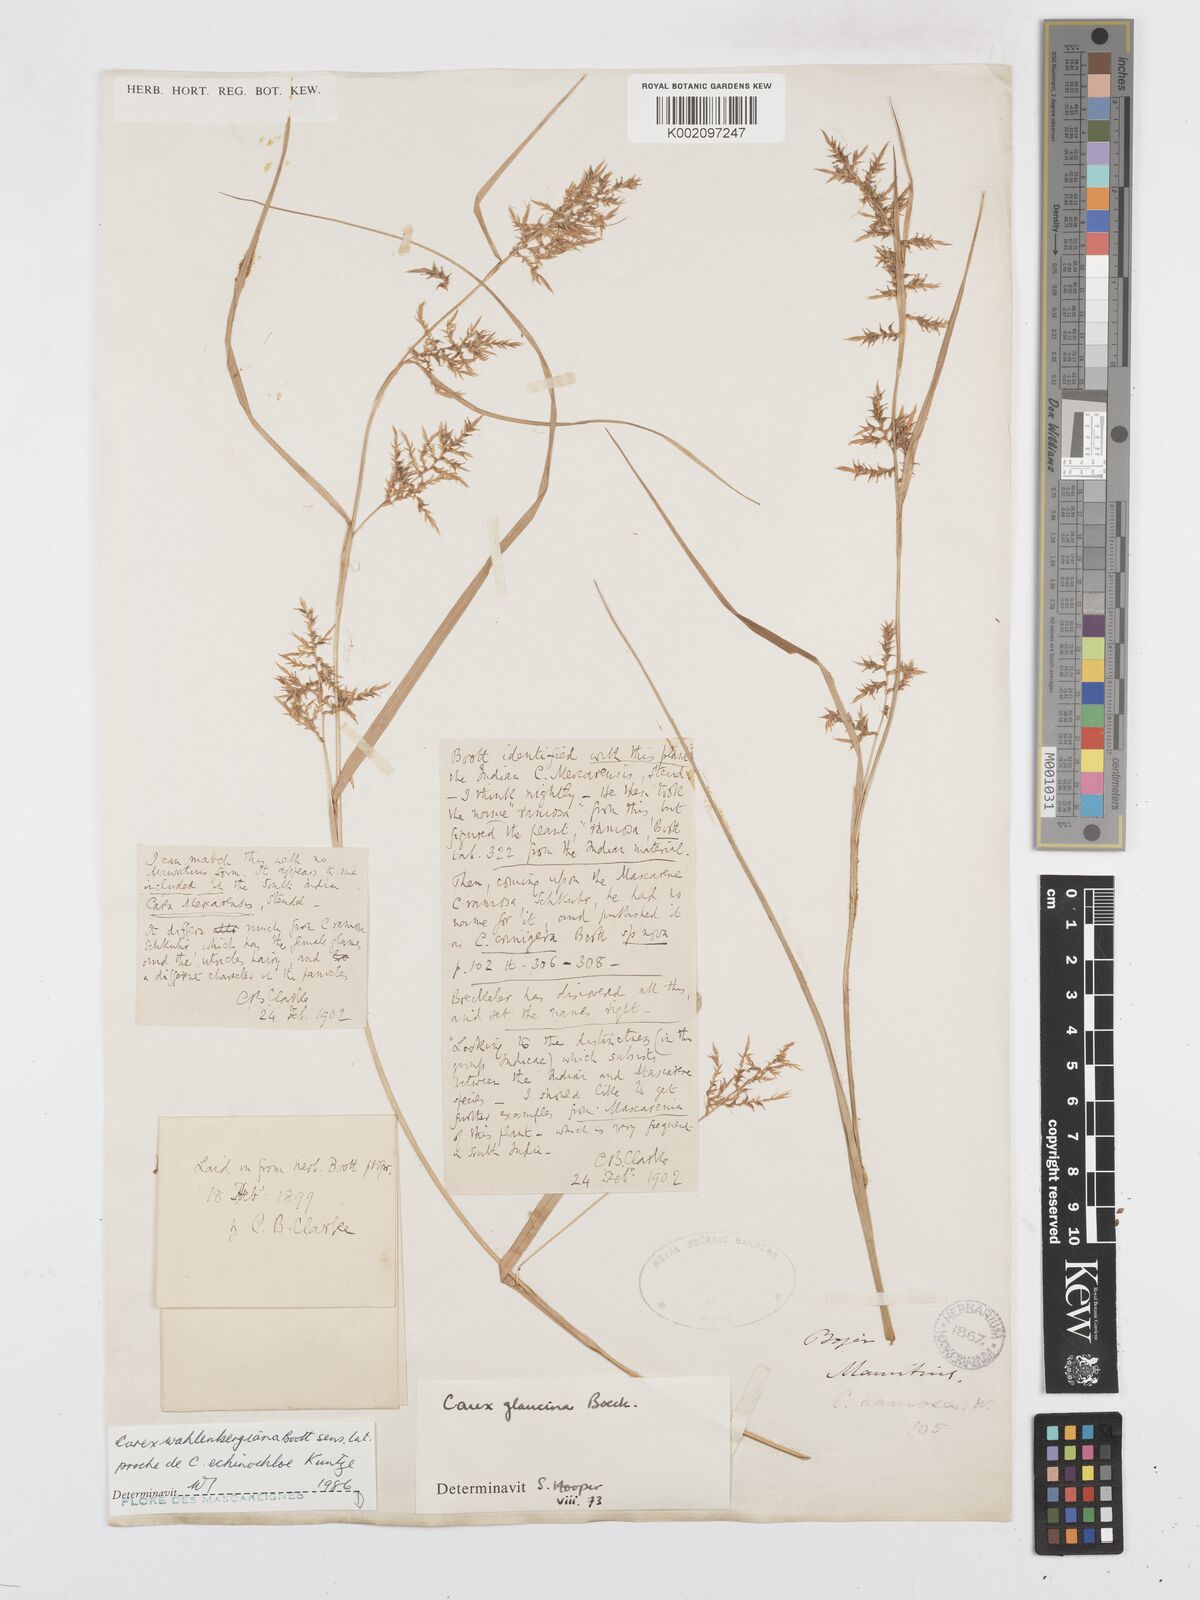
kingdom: Plantae
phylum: Tracheophyta
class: Liliopsida
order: Poales
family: Cyperaceae
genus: Carex
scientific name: Carex wahlenbergiana
